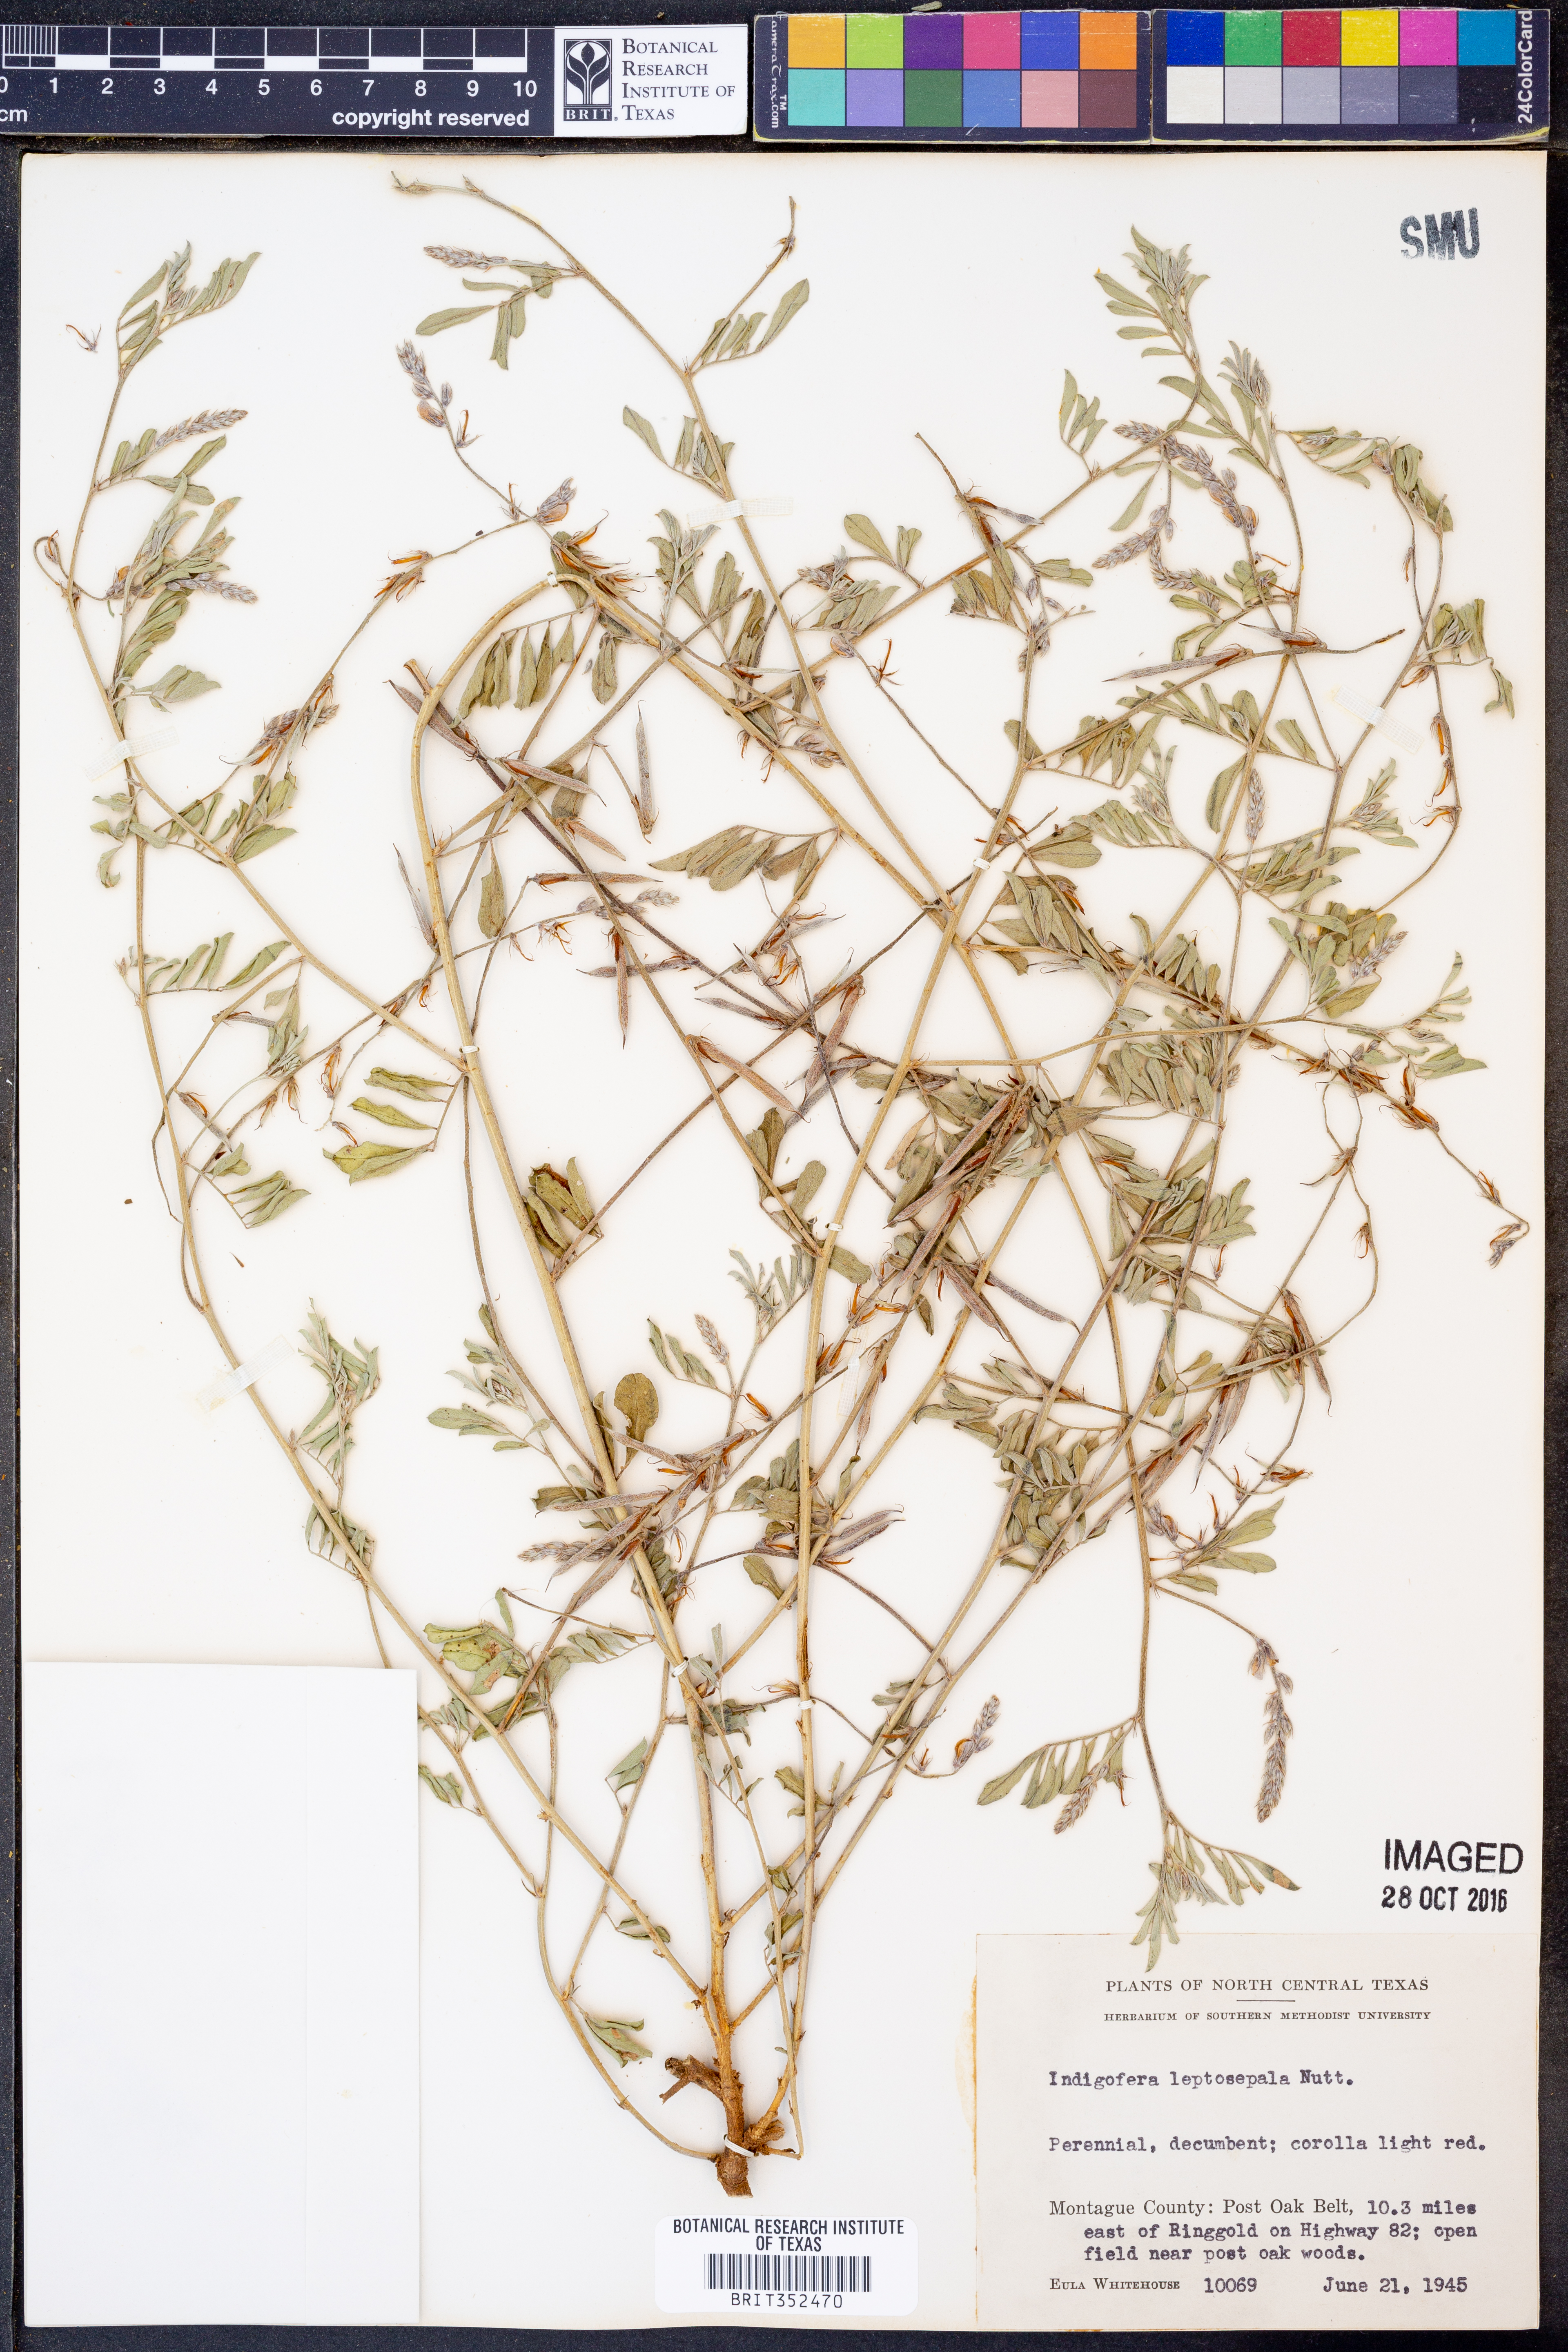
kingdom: Plantae
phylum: Tracheophyta
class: Magnoliopsida
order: Fabales
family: Fabaceae
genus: Indigofera
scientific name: Indigofera argutidens
